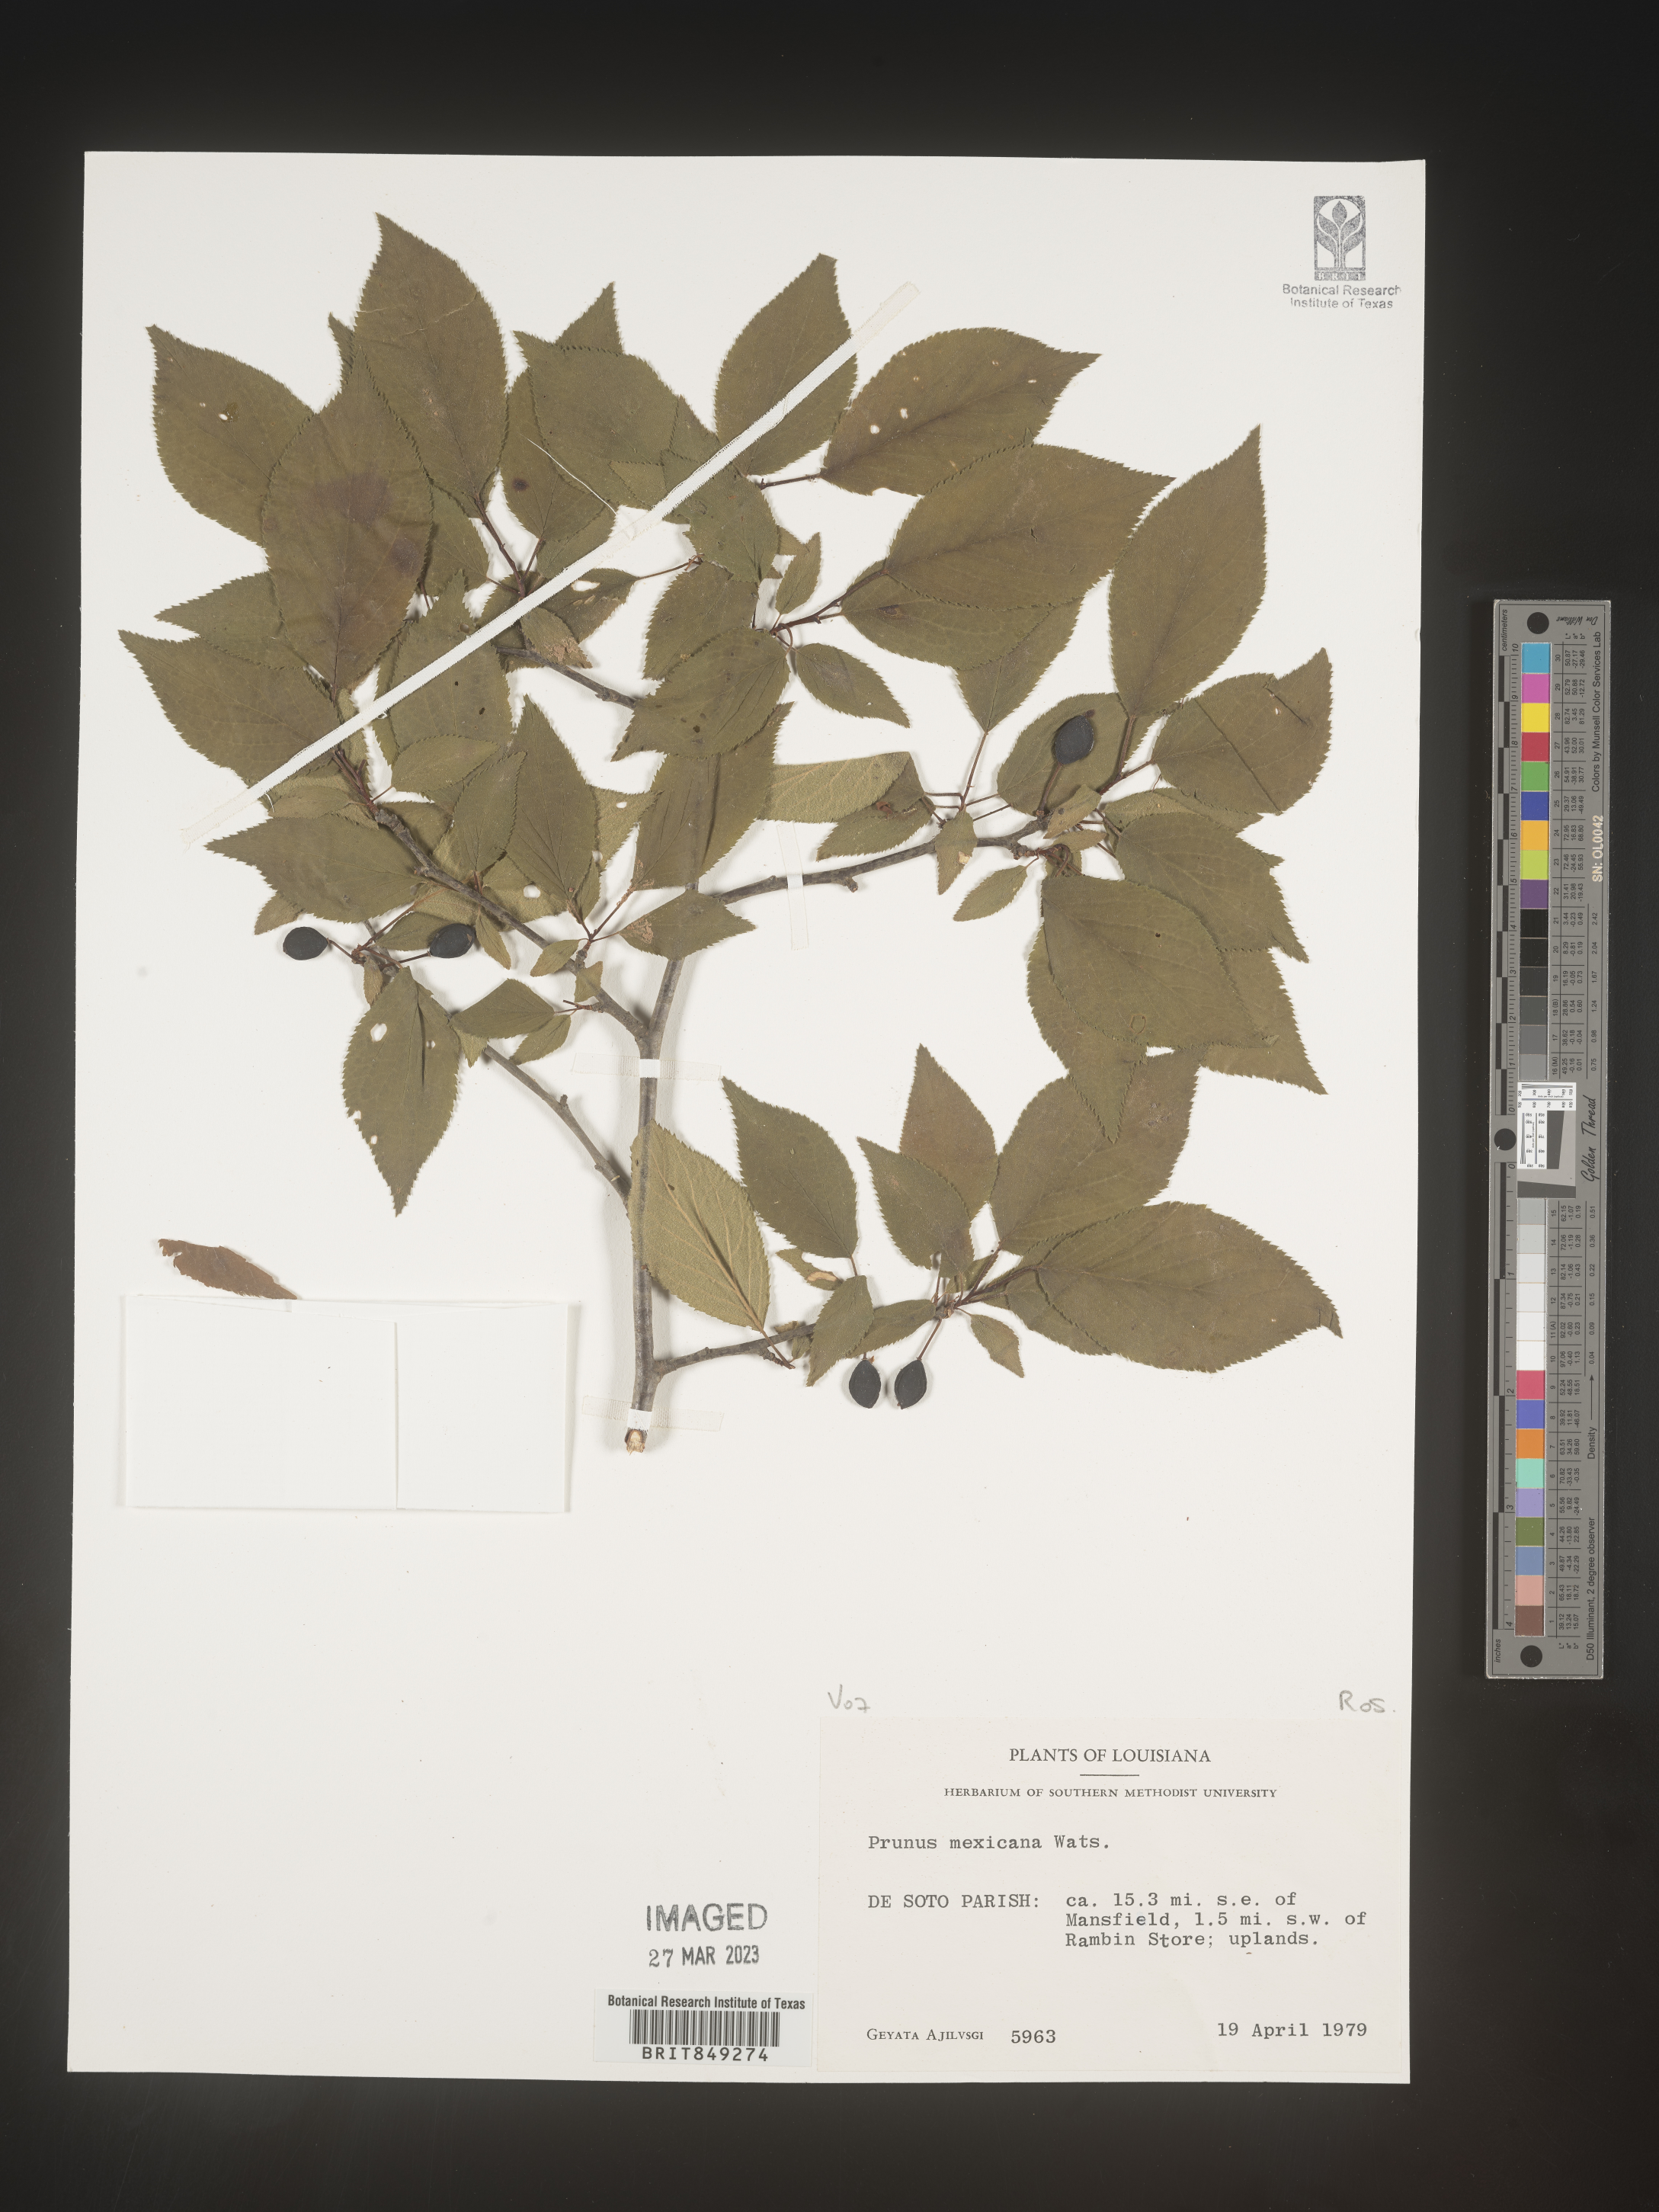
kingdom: Plantae
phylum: Tracheophyta
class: Magnoliopsida
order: Rosales
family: Rosaceae
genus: Prunus
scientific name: Prunus
